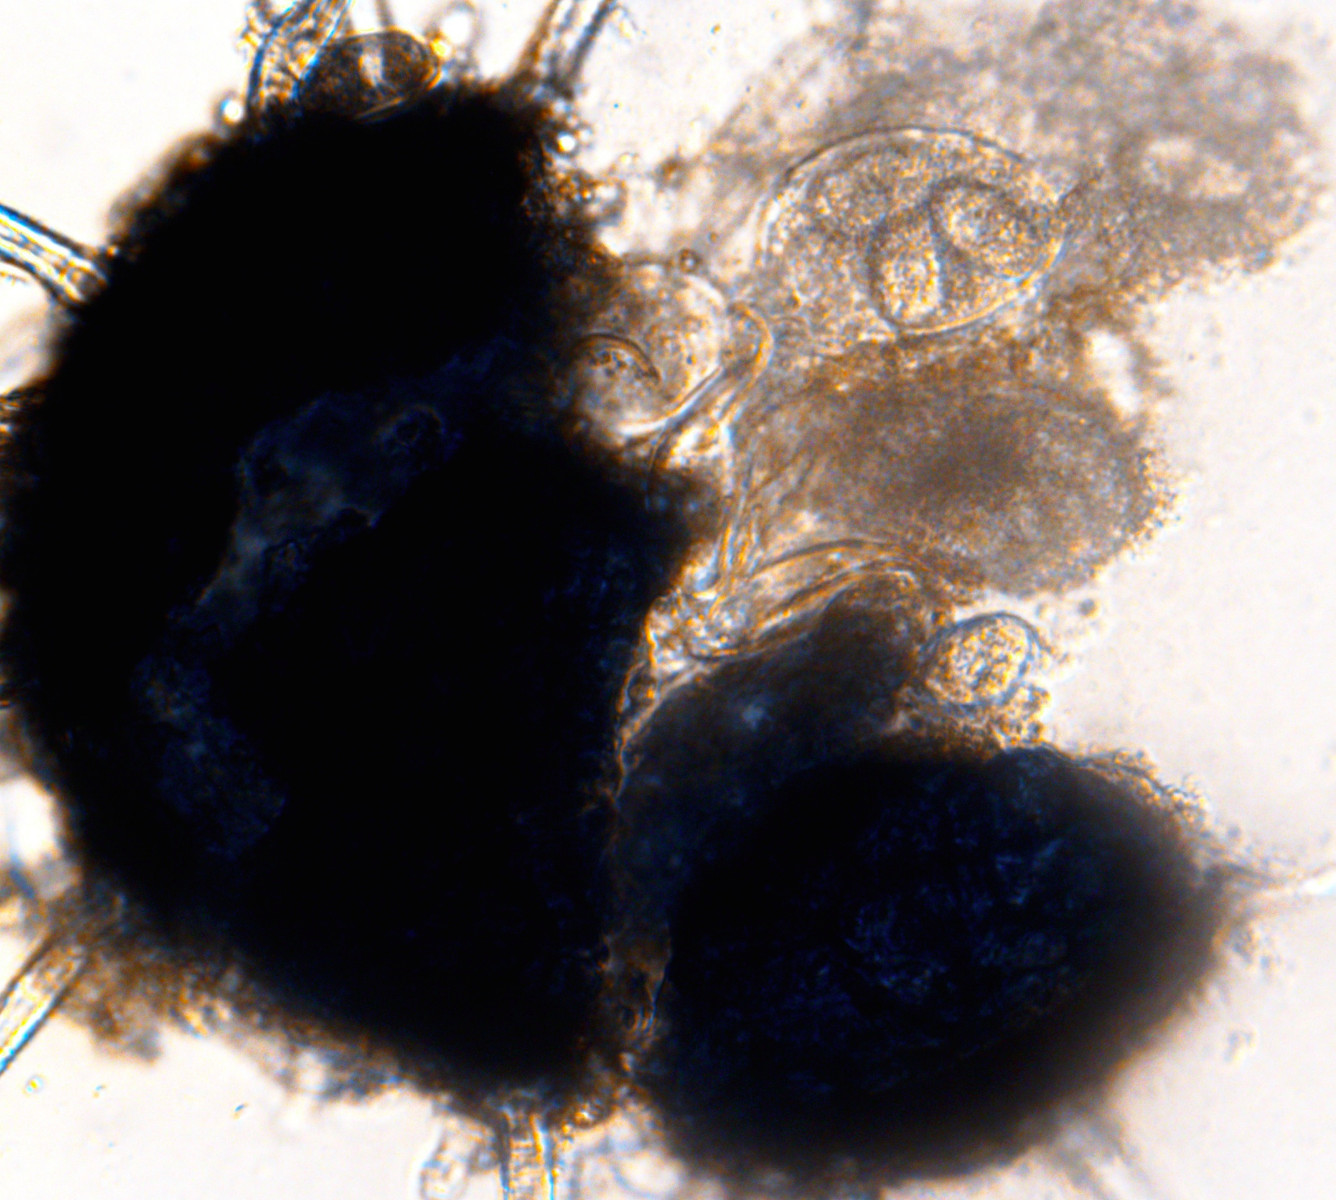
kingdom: Fungi
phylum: Ascomycota
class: Leotiomycetes
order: Helotiales
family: Erysiphaceae
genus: Erysiphe
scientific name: Erysiphe elevata
